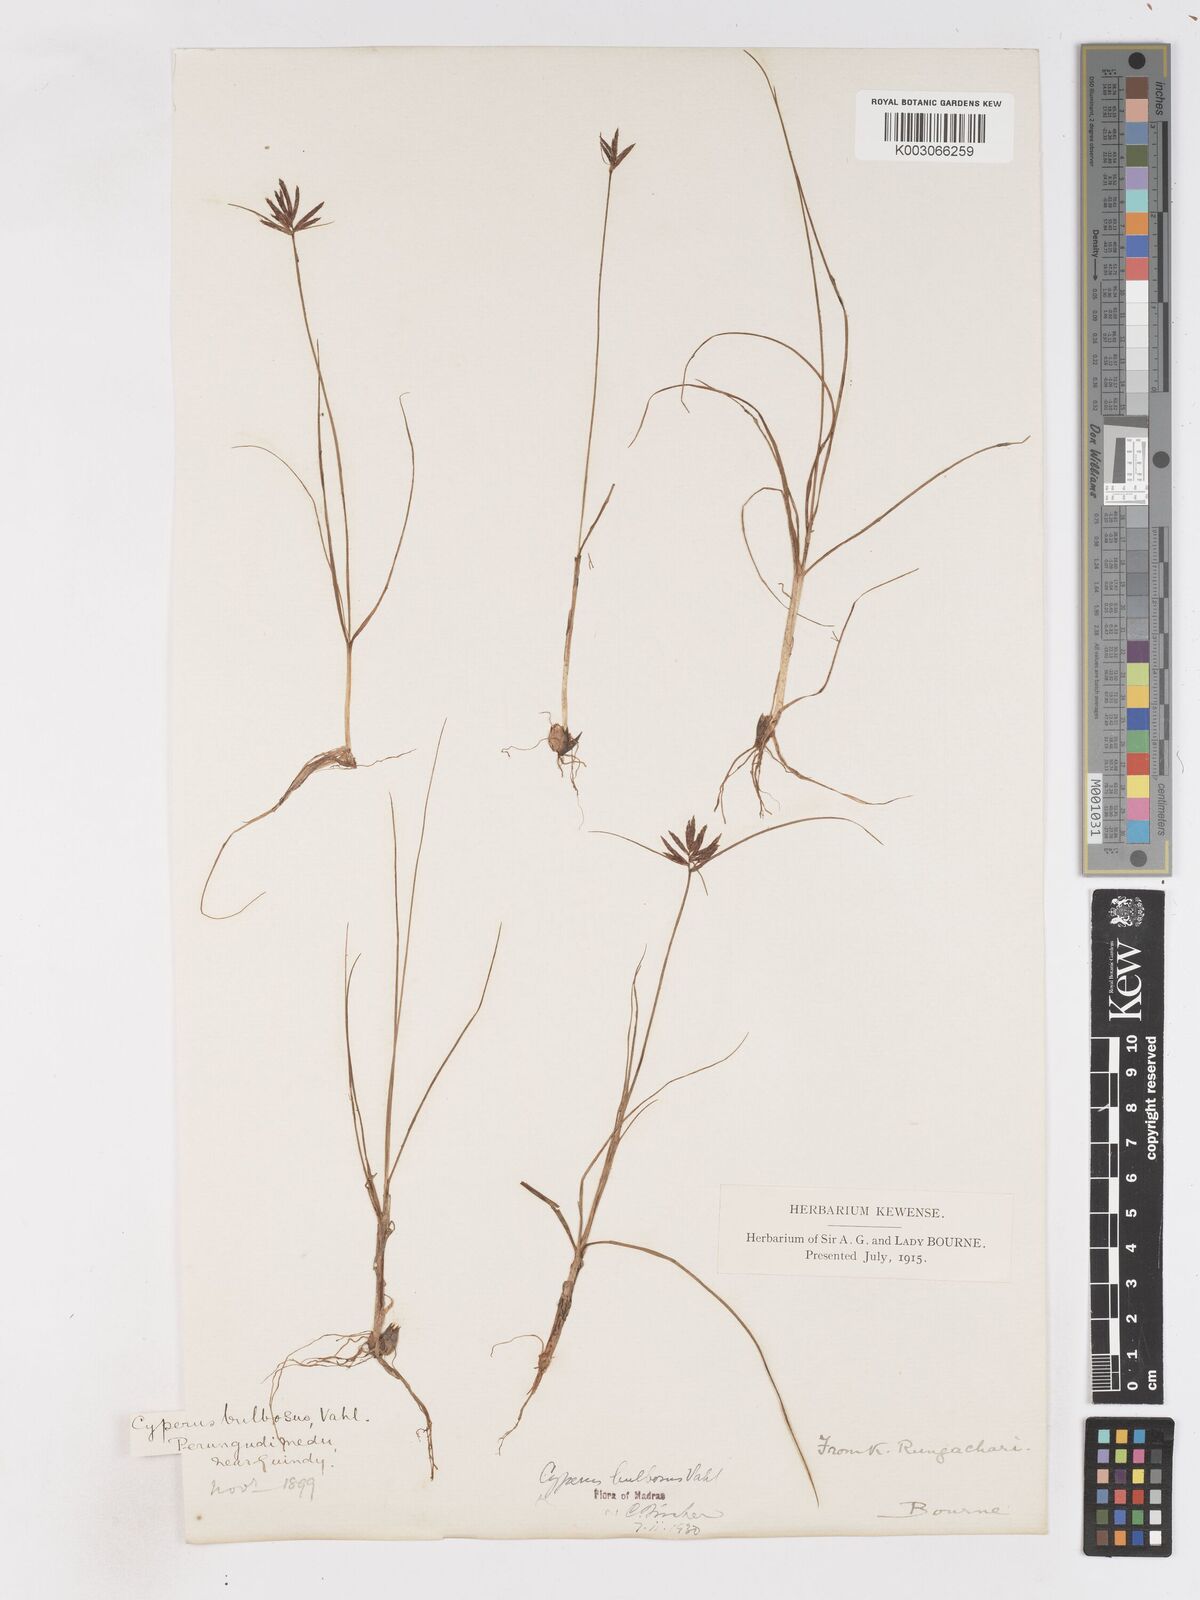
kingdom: Plantae
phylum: Tracheophyta
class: Liliopsida
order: Poales
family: Cyperaceae
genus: Cyperus
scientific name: Cyperus bulbosus
